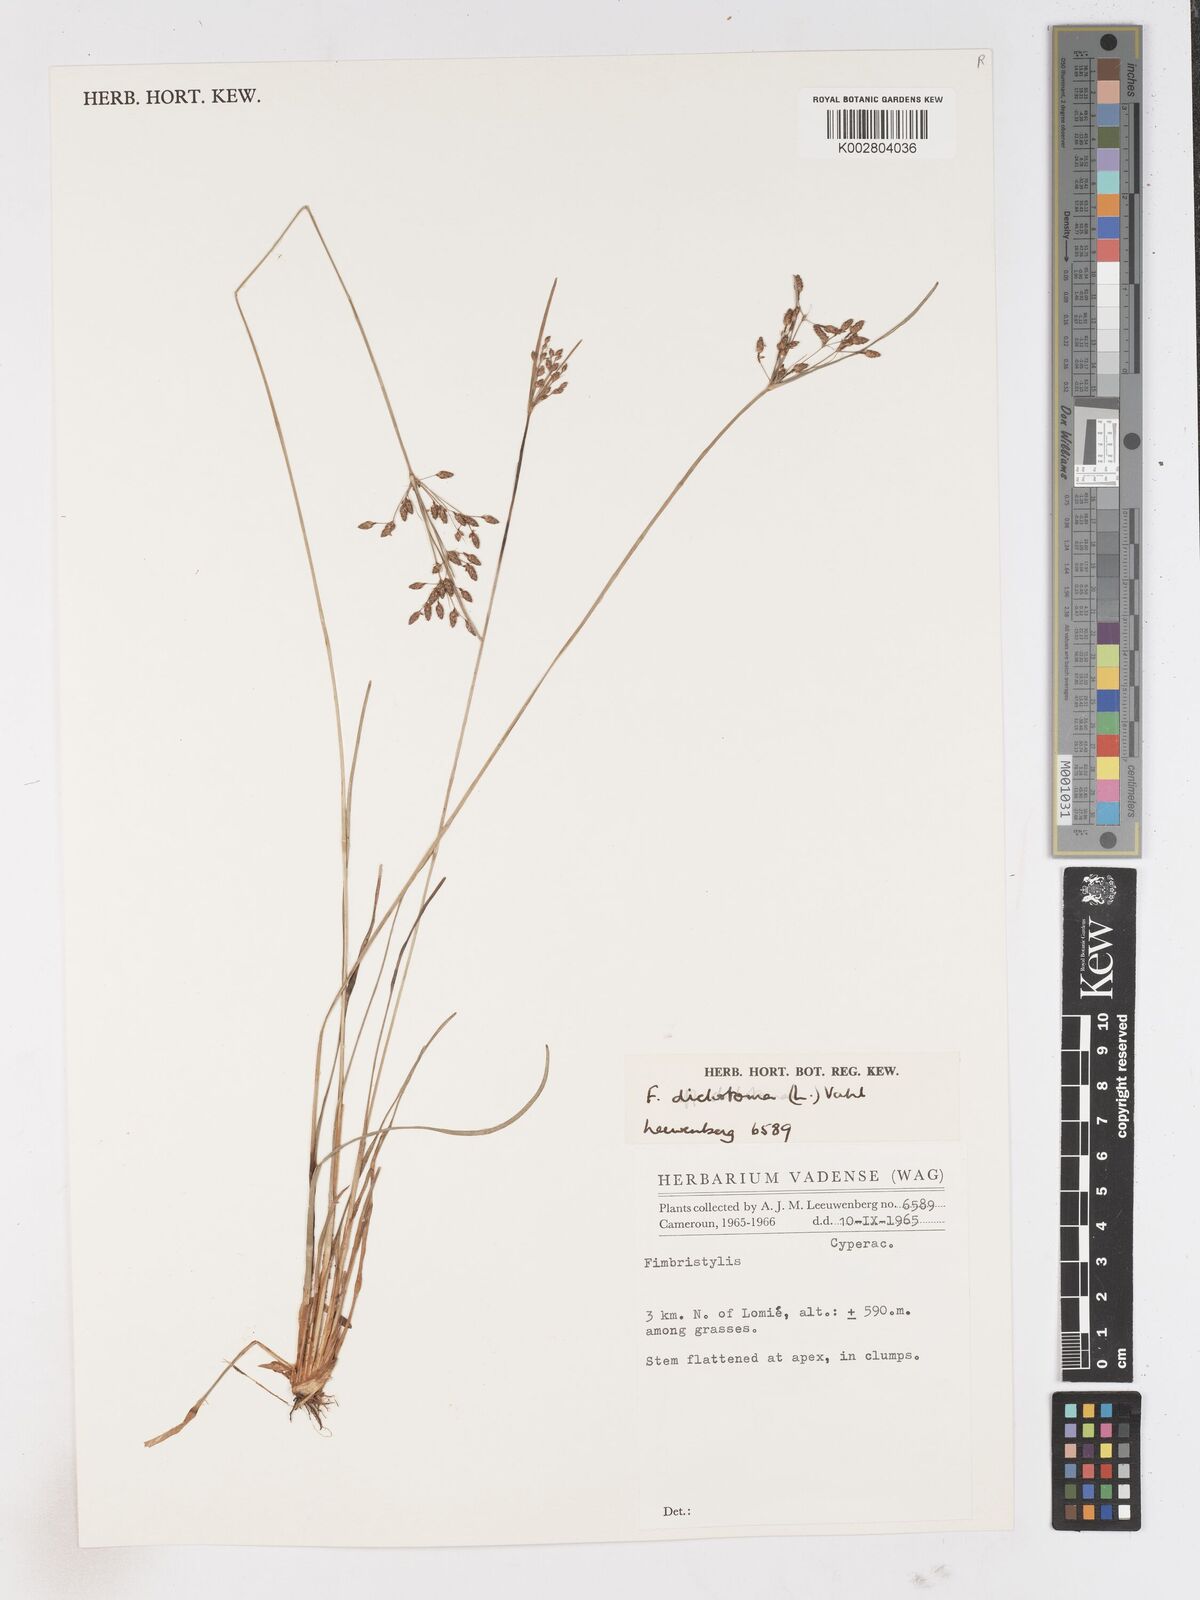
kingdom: Plantae
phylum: Tracheophyta
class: Liliopsida
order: Poales
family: Cyperaceae
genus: Fimbristylis
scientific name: Fimbristylis dichotoma
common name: Forked fimbry
